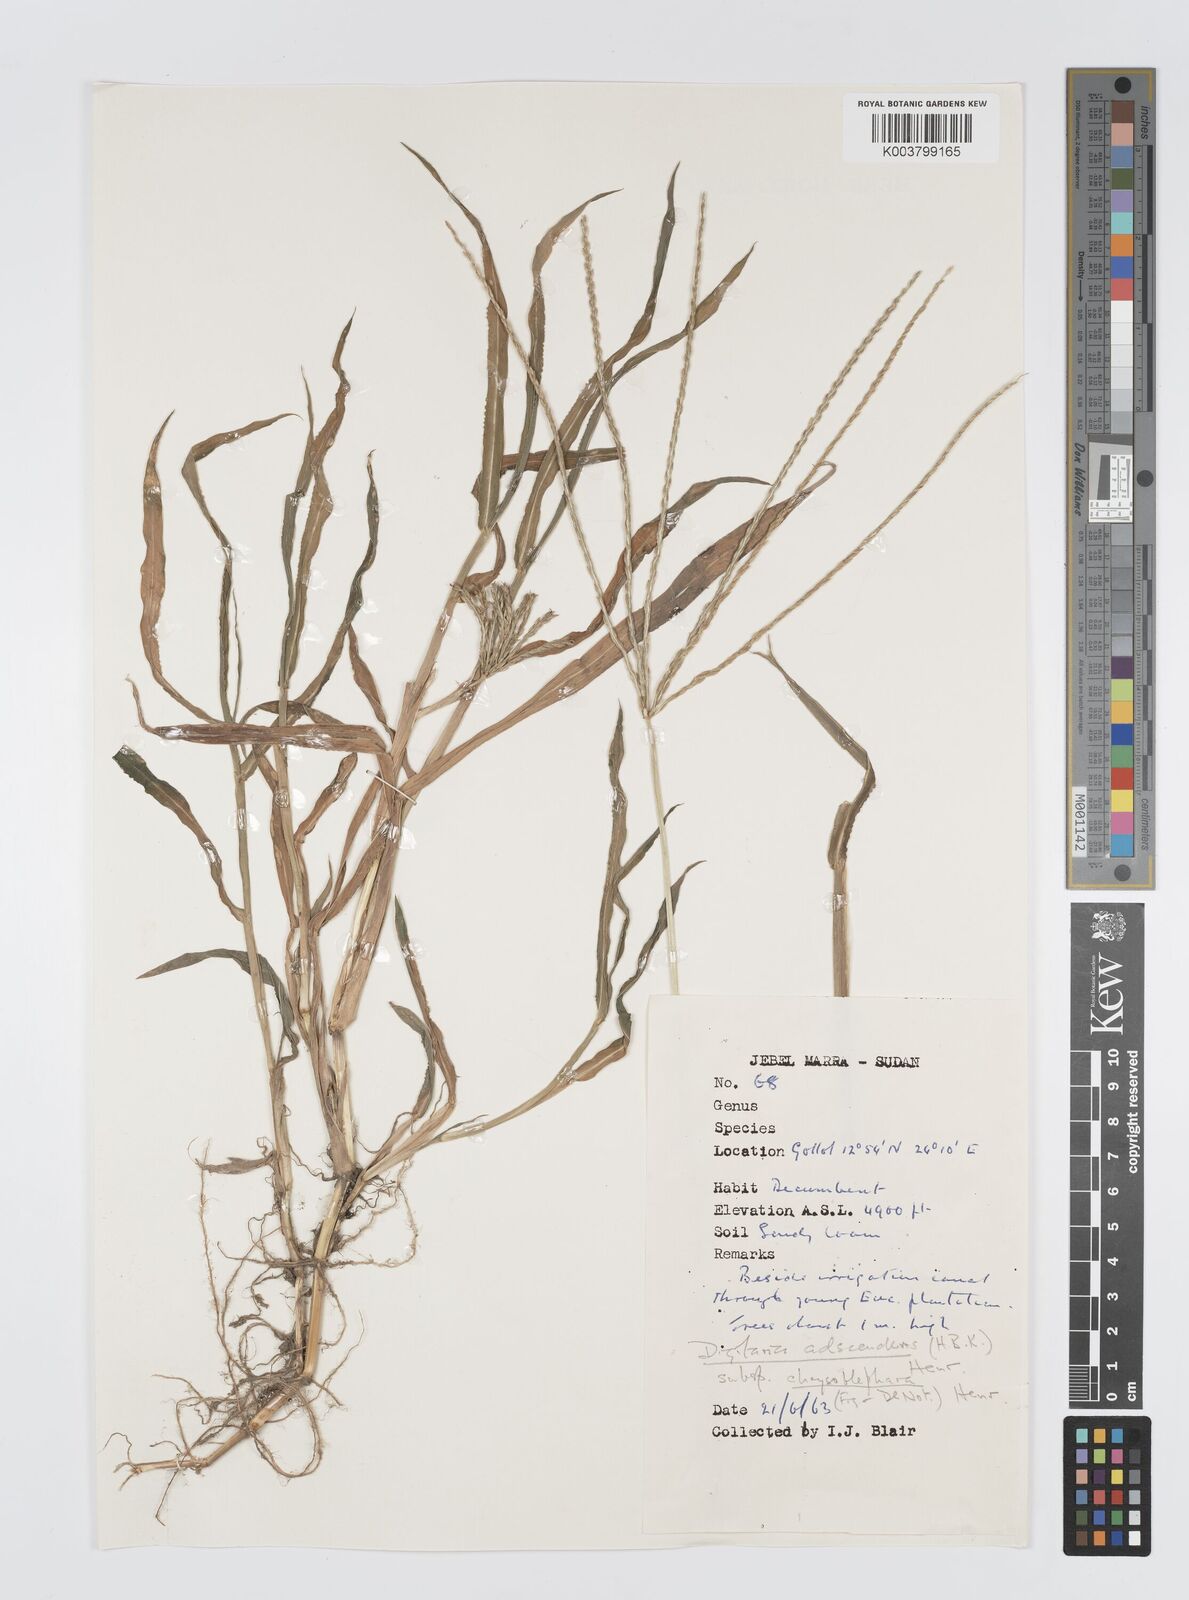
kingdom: Plantae
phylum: Tracheophyta
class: Liliopsida
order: Poales
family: Poaceae
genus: Digitaria
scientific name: Digitaria acuminatissima
